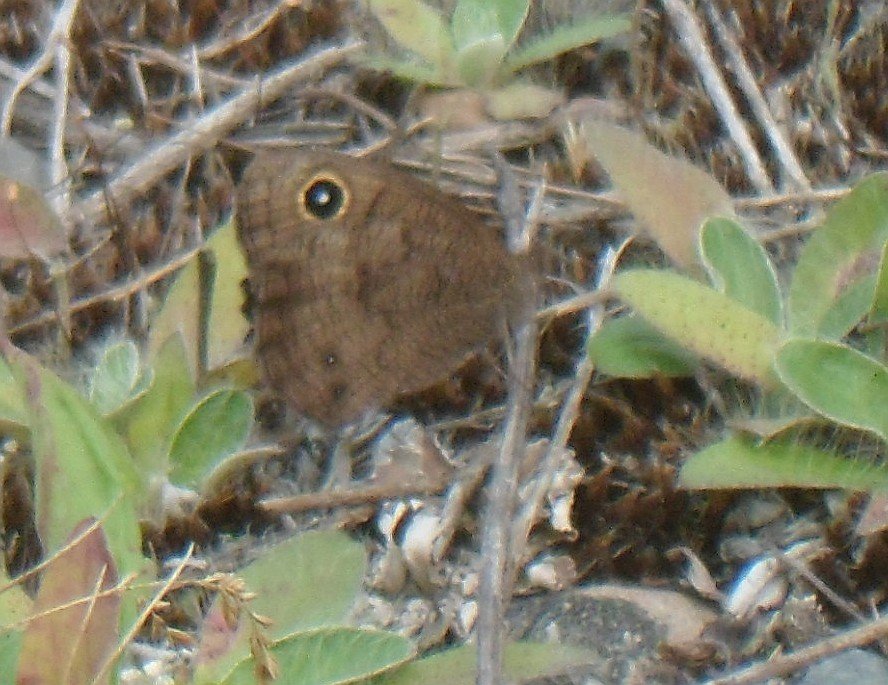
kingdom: Animalia
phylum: Arthropoda
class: Insecta
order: Lepidoptera
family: Nymphalidae
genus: Cercyonis
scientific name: Cercyonis pegala
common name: Common Wood-Nymph
